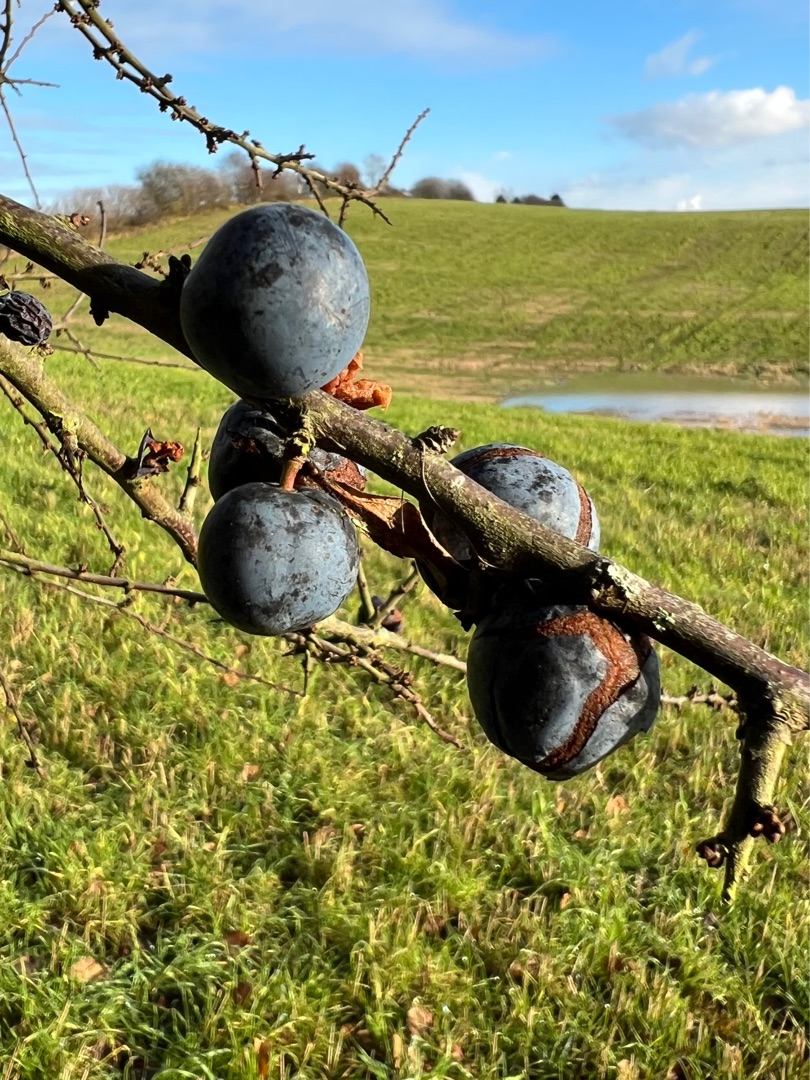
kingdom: Plantae
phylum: Tracheophyta
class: Magnoliopsida
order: Rosales
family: Rosaceae
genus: Prunus
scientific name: Prunus spinosa
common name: Slåen
